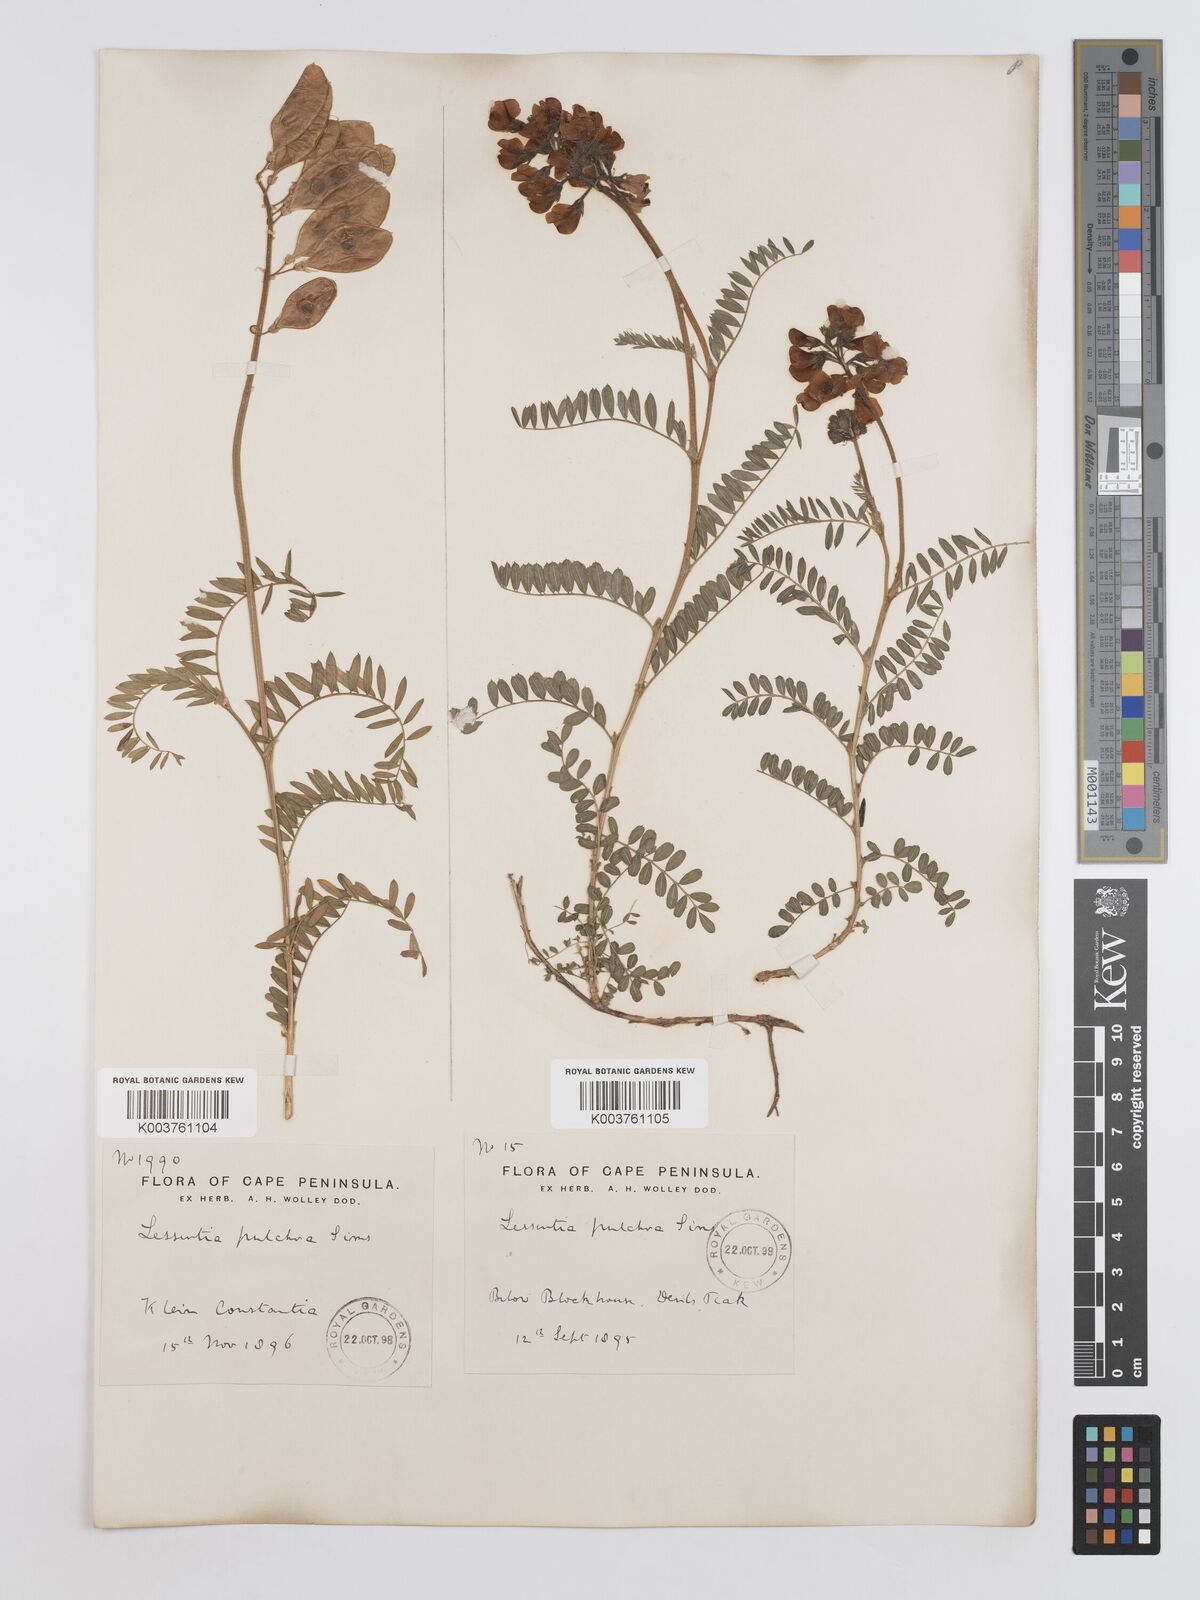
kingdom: Plantae
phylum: Tracheophyta
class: Magnoliopsida
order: Fabales
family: Fabaceae
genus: Lessertia
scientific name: Lessertia capensis
